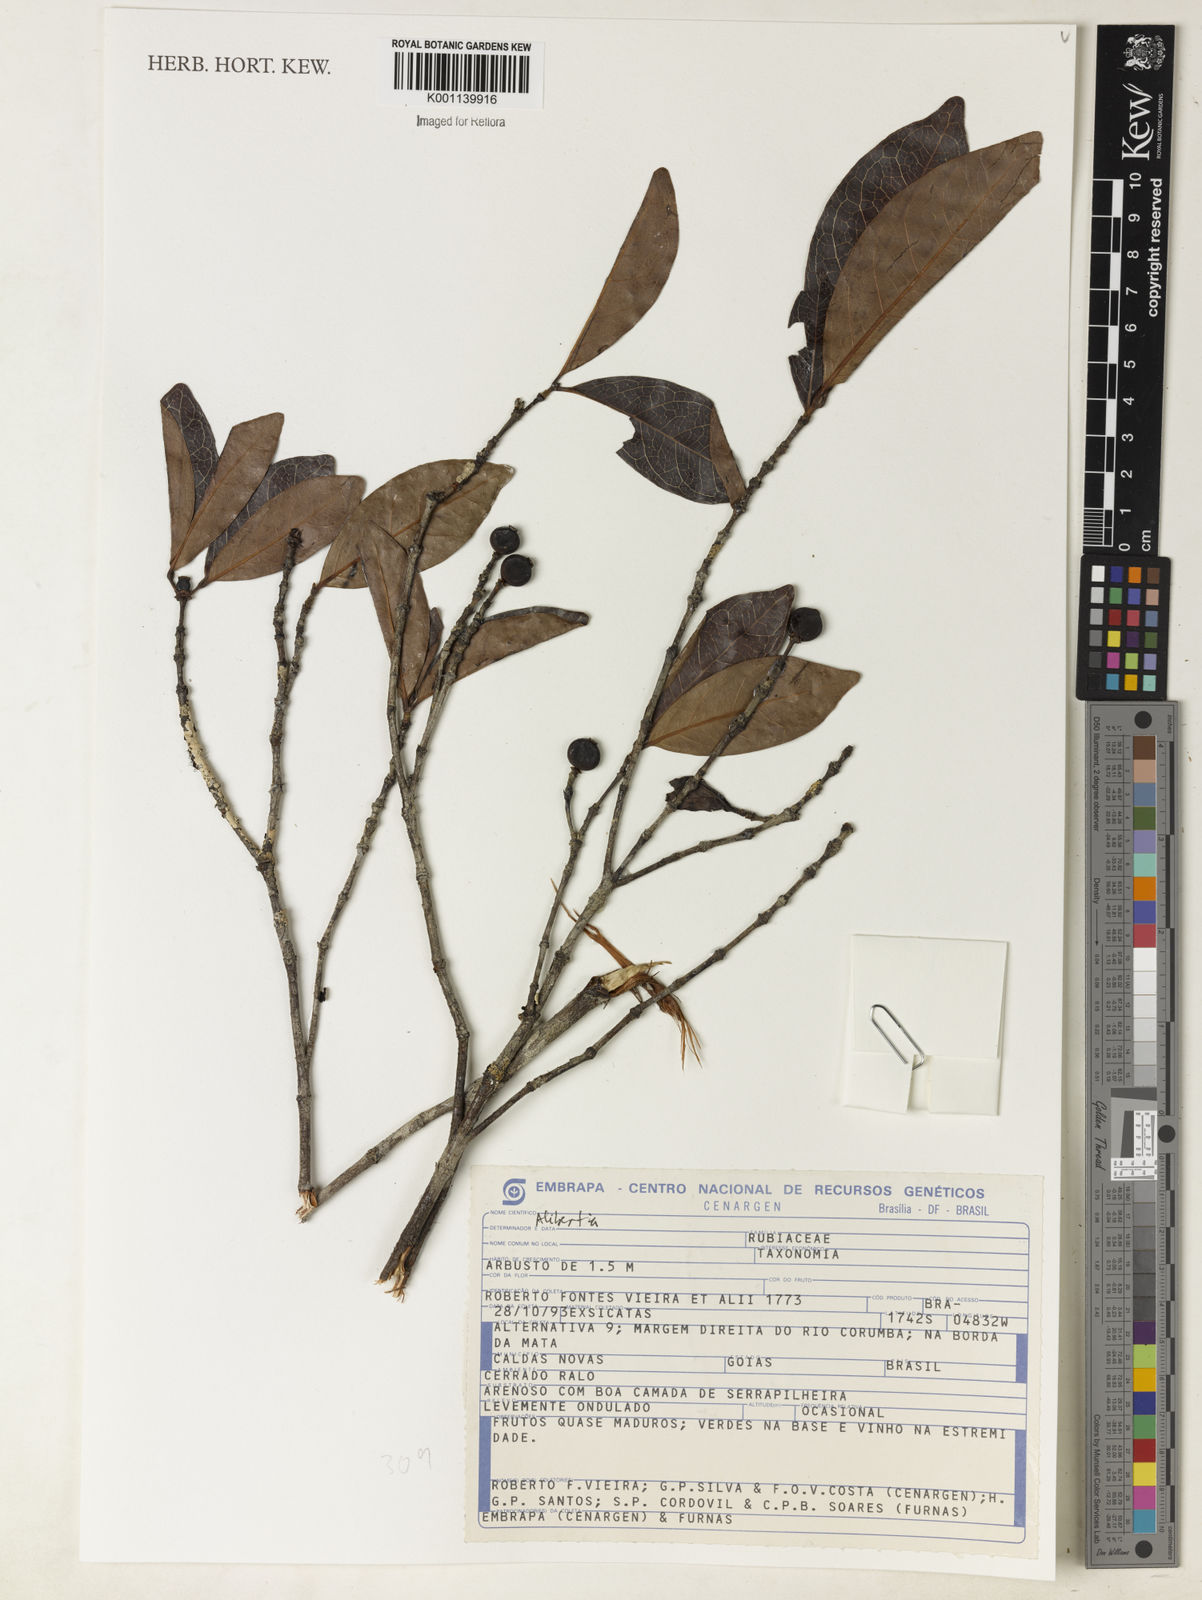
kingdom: Plantae
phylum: Tracheophyta
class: Magnoliopsida
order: Gentianales
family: Rubiaceae
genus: Alibertia
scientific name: Alibertia
